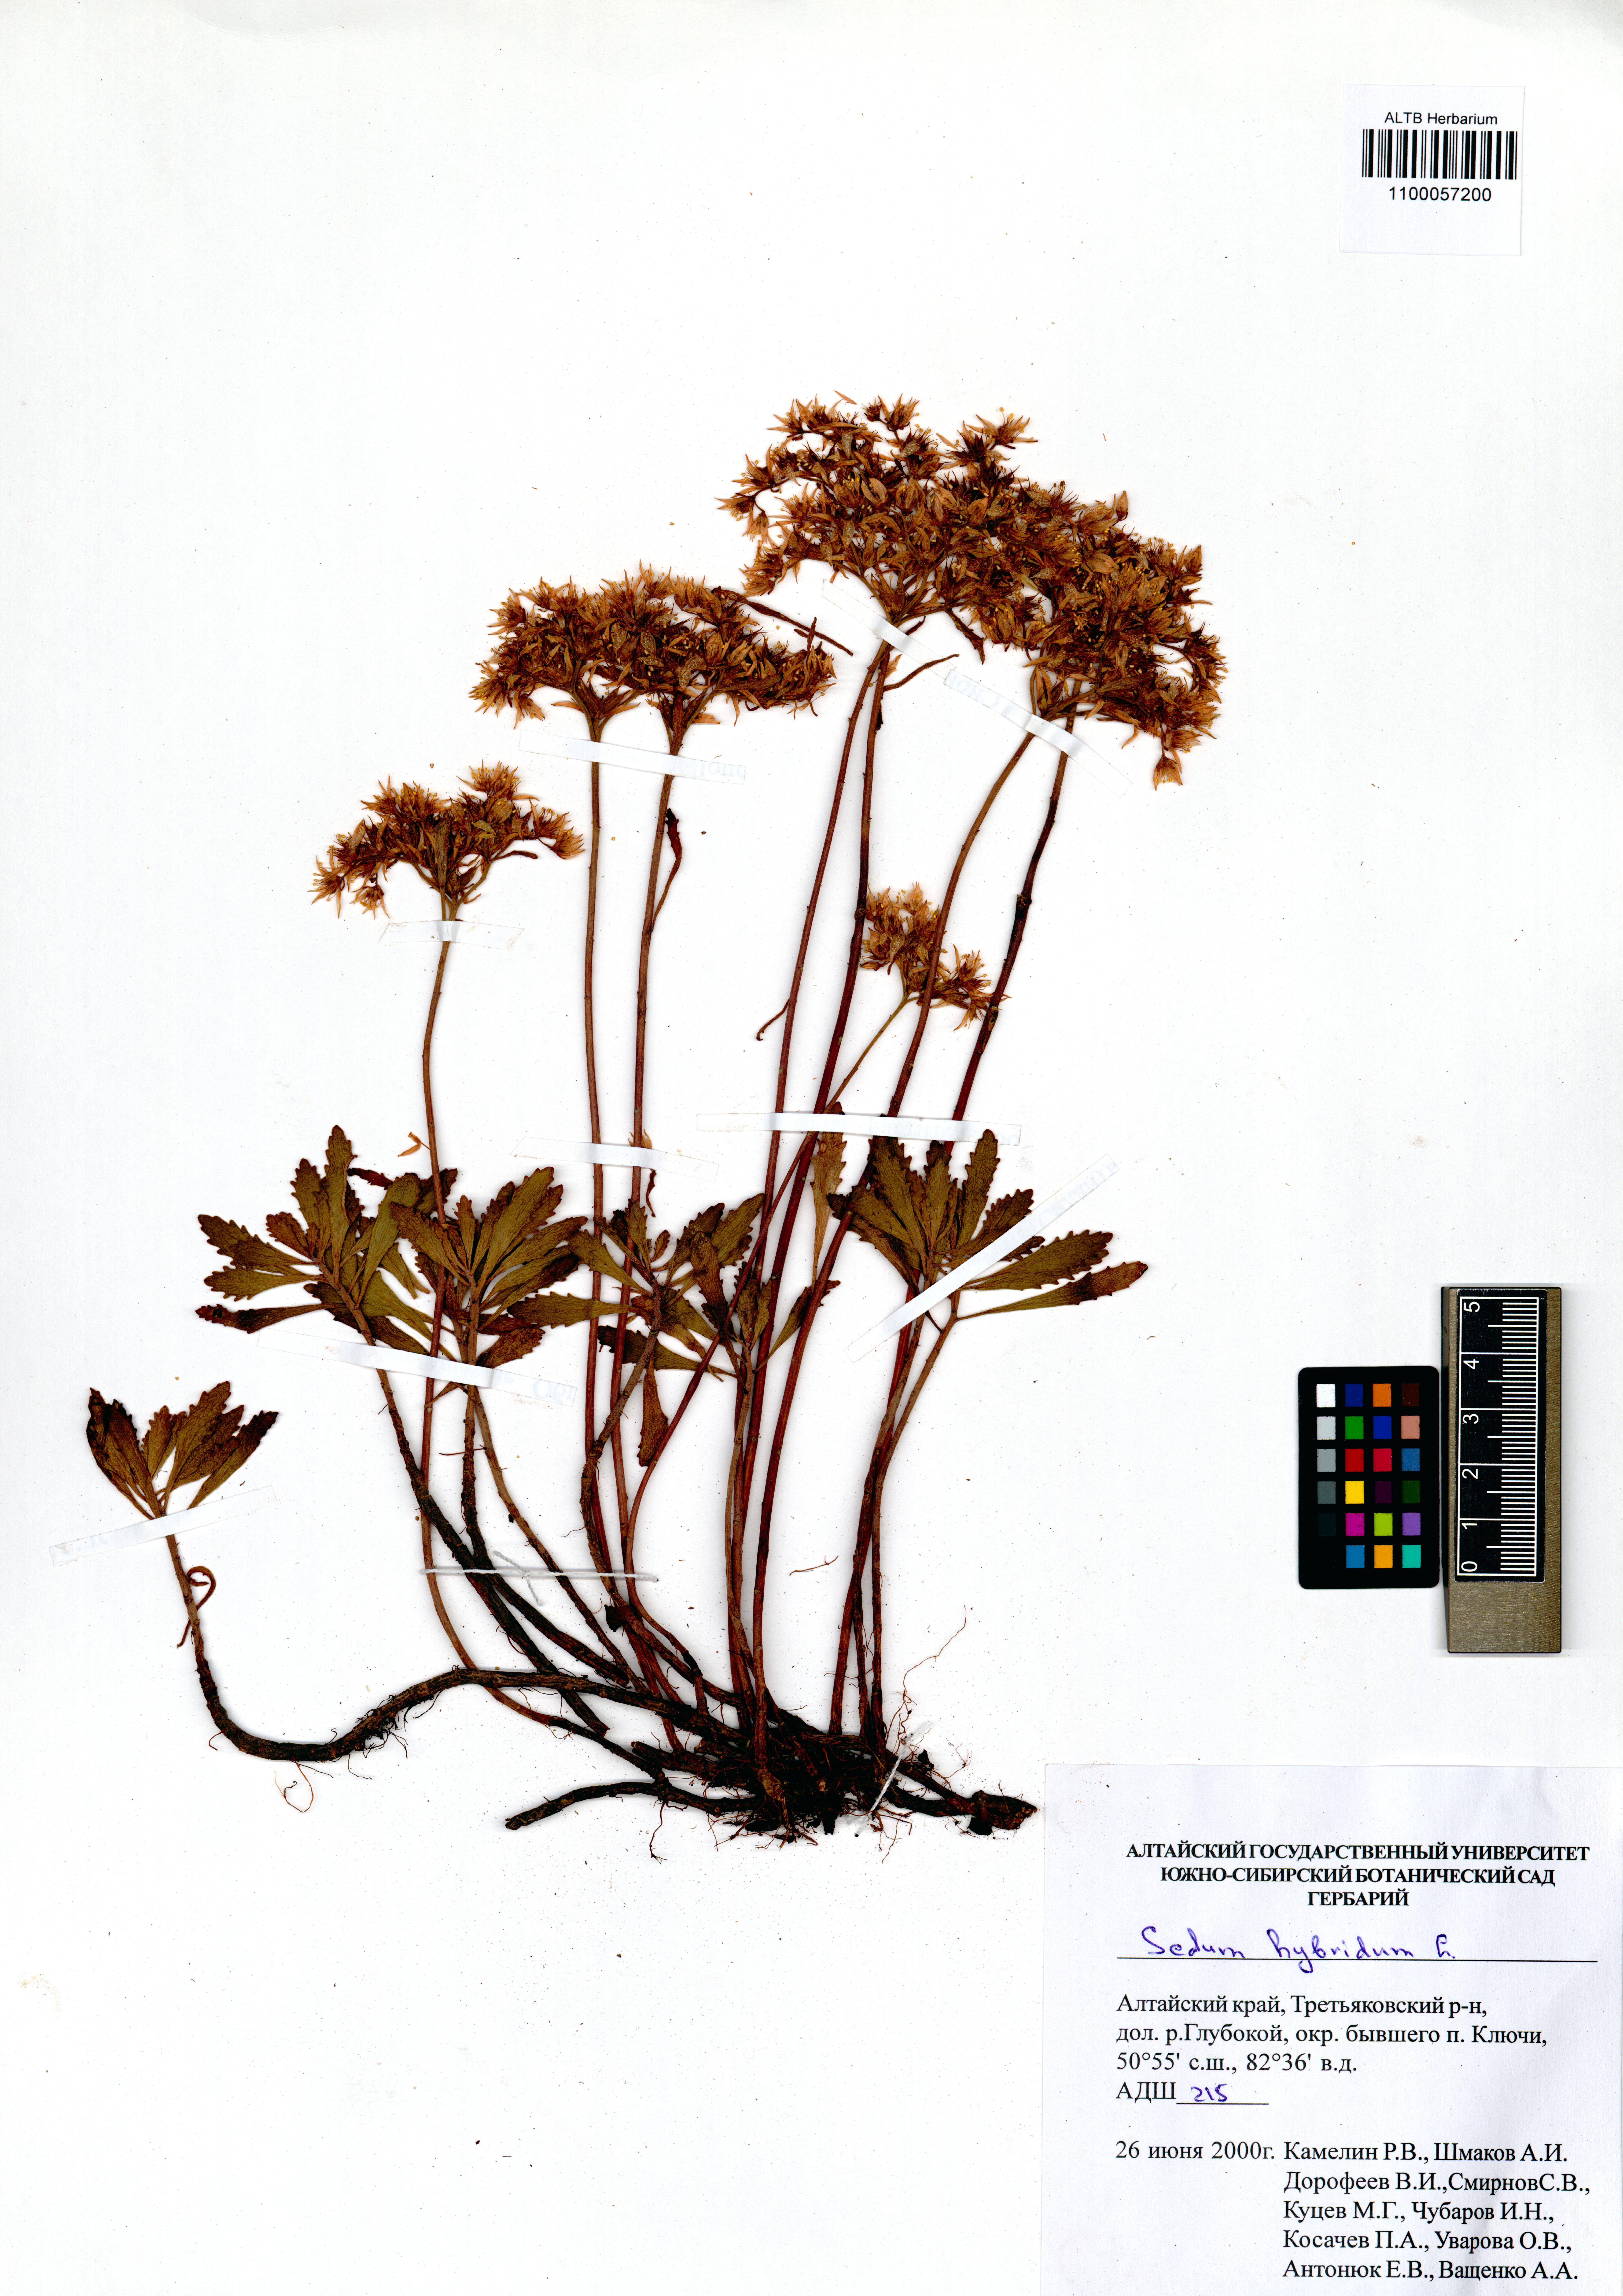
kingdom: Plantae
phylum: Tracheophyta
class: Magnoliopsida
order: Saxifragales
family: Crassulaceae
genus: Phedimus
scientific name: Phedimus hybridus
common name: Hybrid stonecrop
